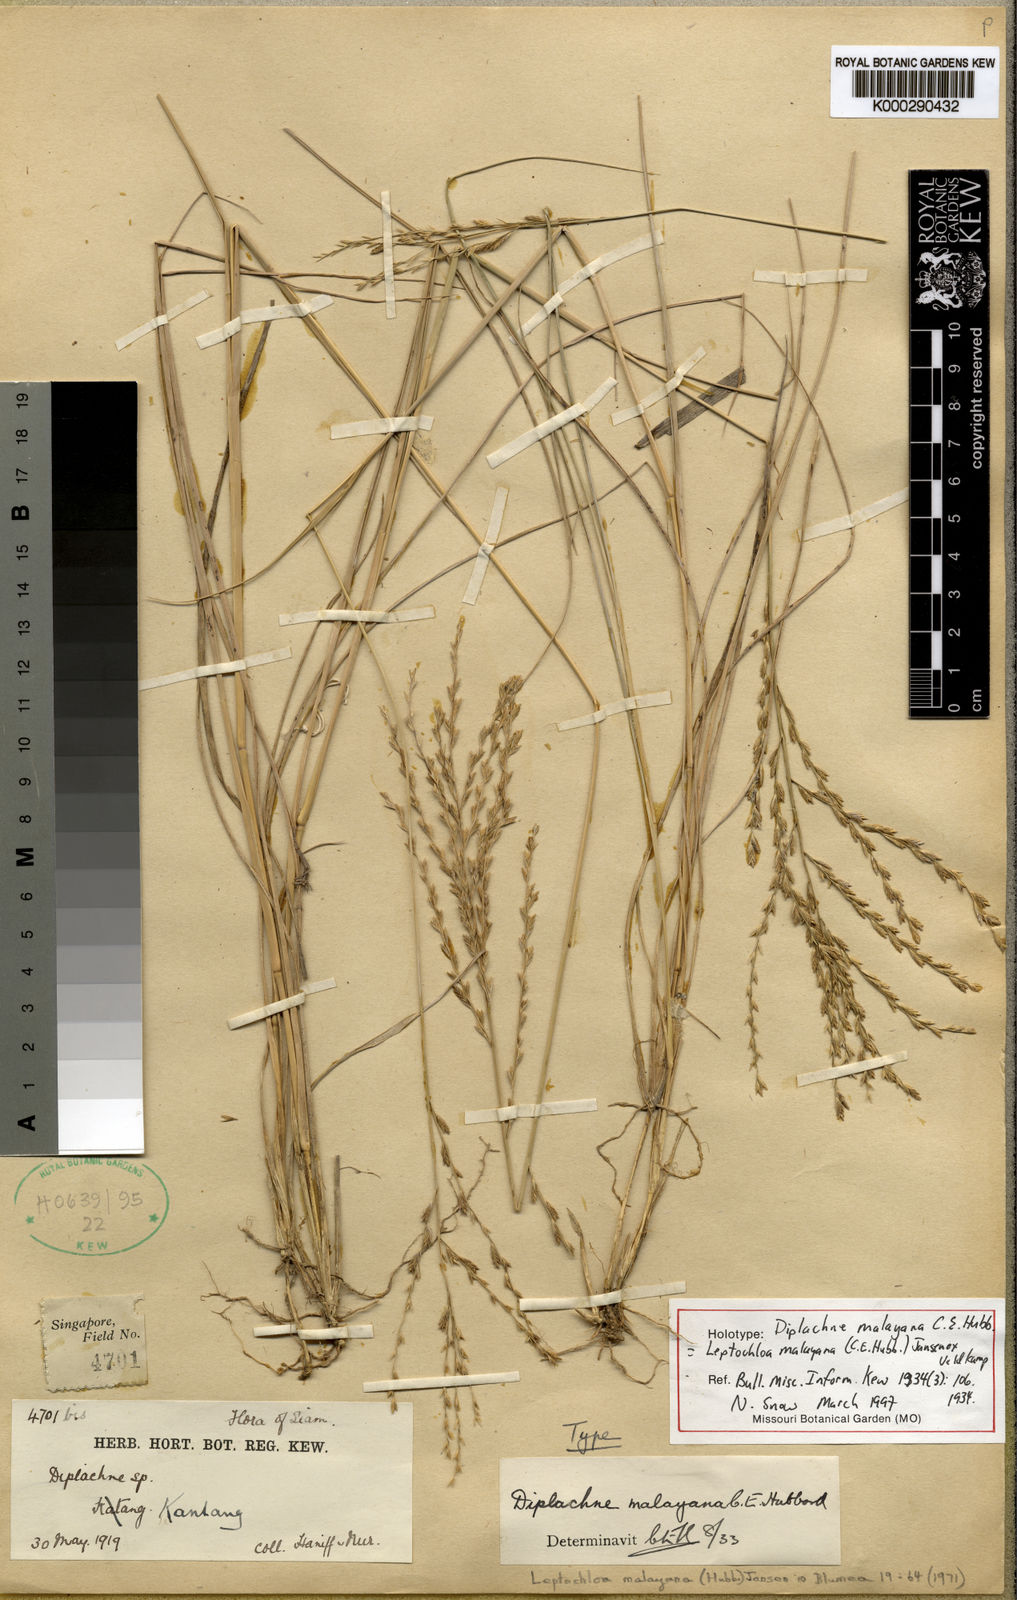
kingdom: Plantae
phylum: Tracheophyta
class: Liliopsida
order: Poales
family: Poaceae
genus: Leptochloa
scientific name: Leptochloa malayana
